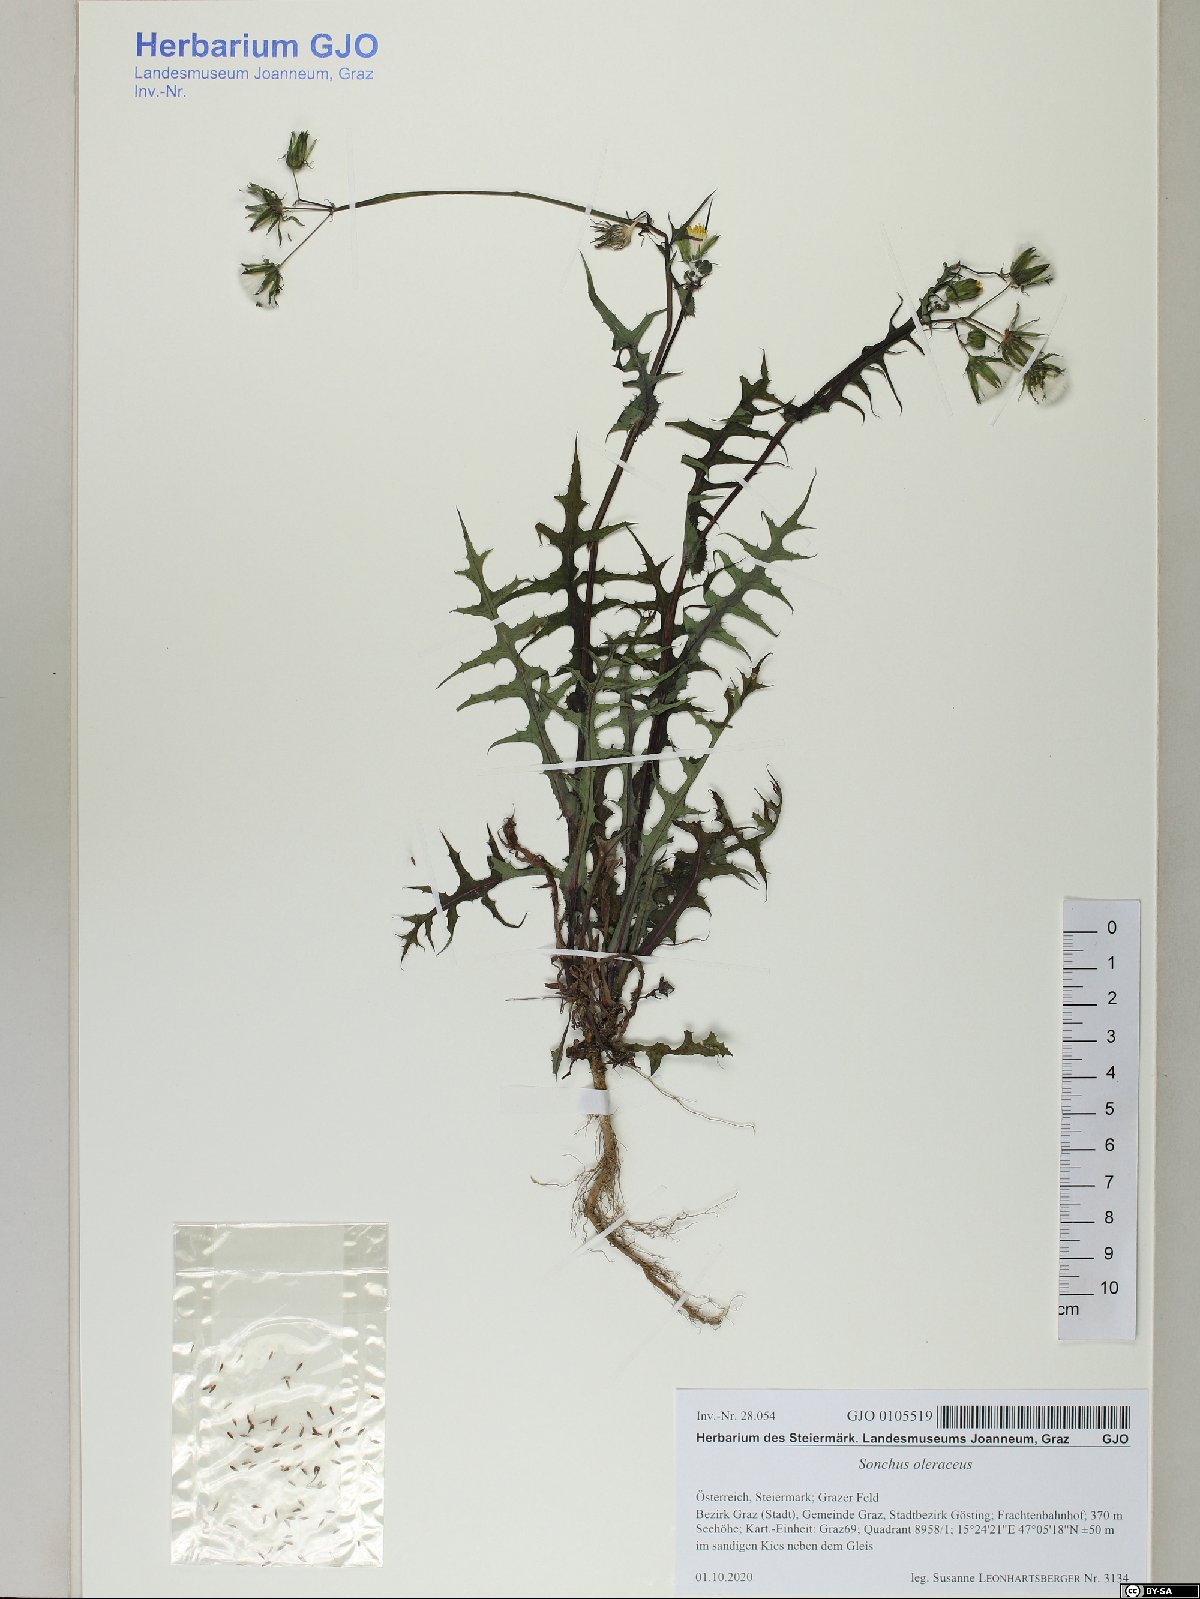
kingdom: Plantae
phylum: Tracheophyta
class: Magnoliopsida
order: Asterales
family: Asteraceae
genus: Sonchus
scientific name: Sonchus oleraceus
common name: Common sowthistle
